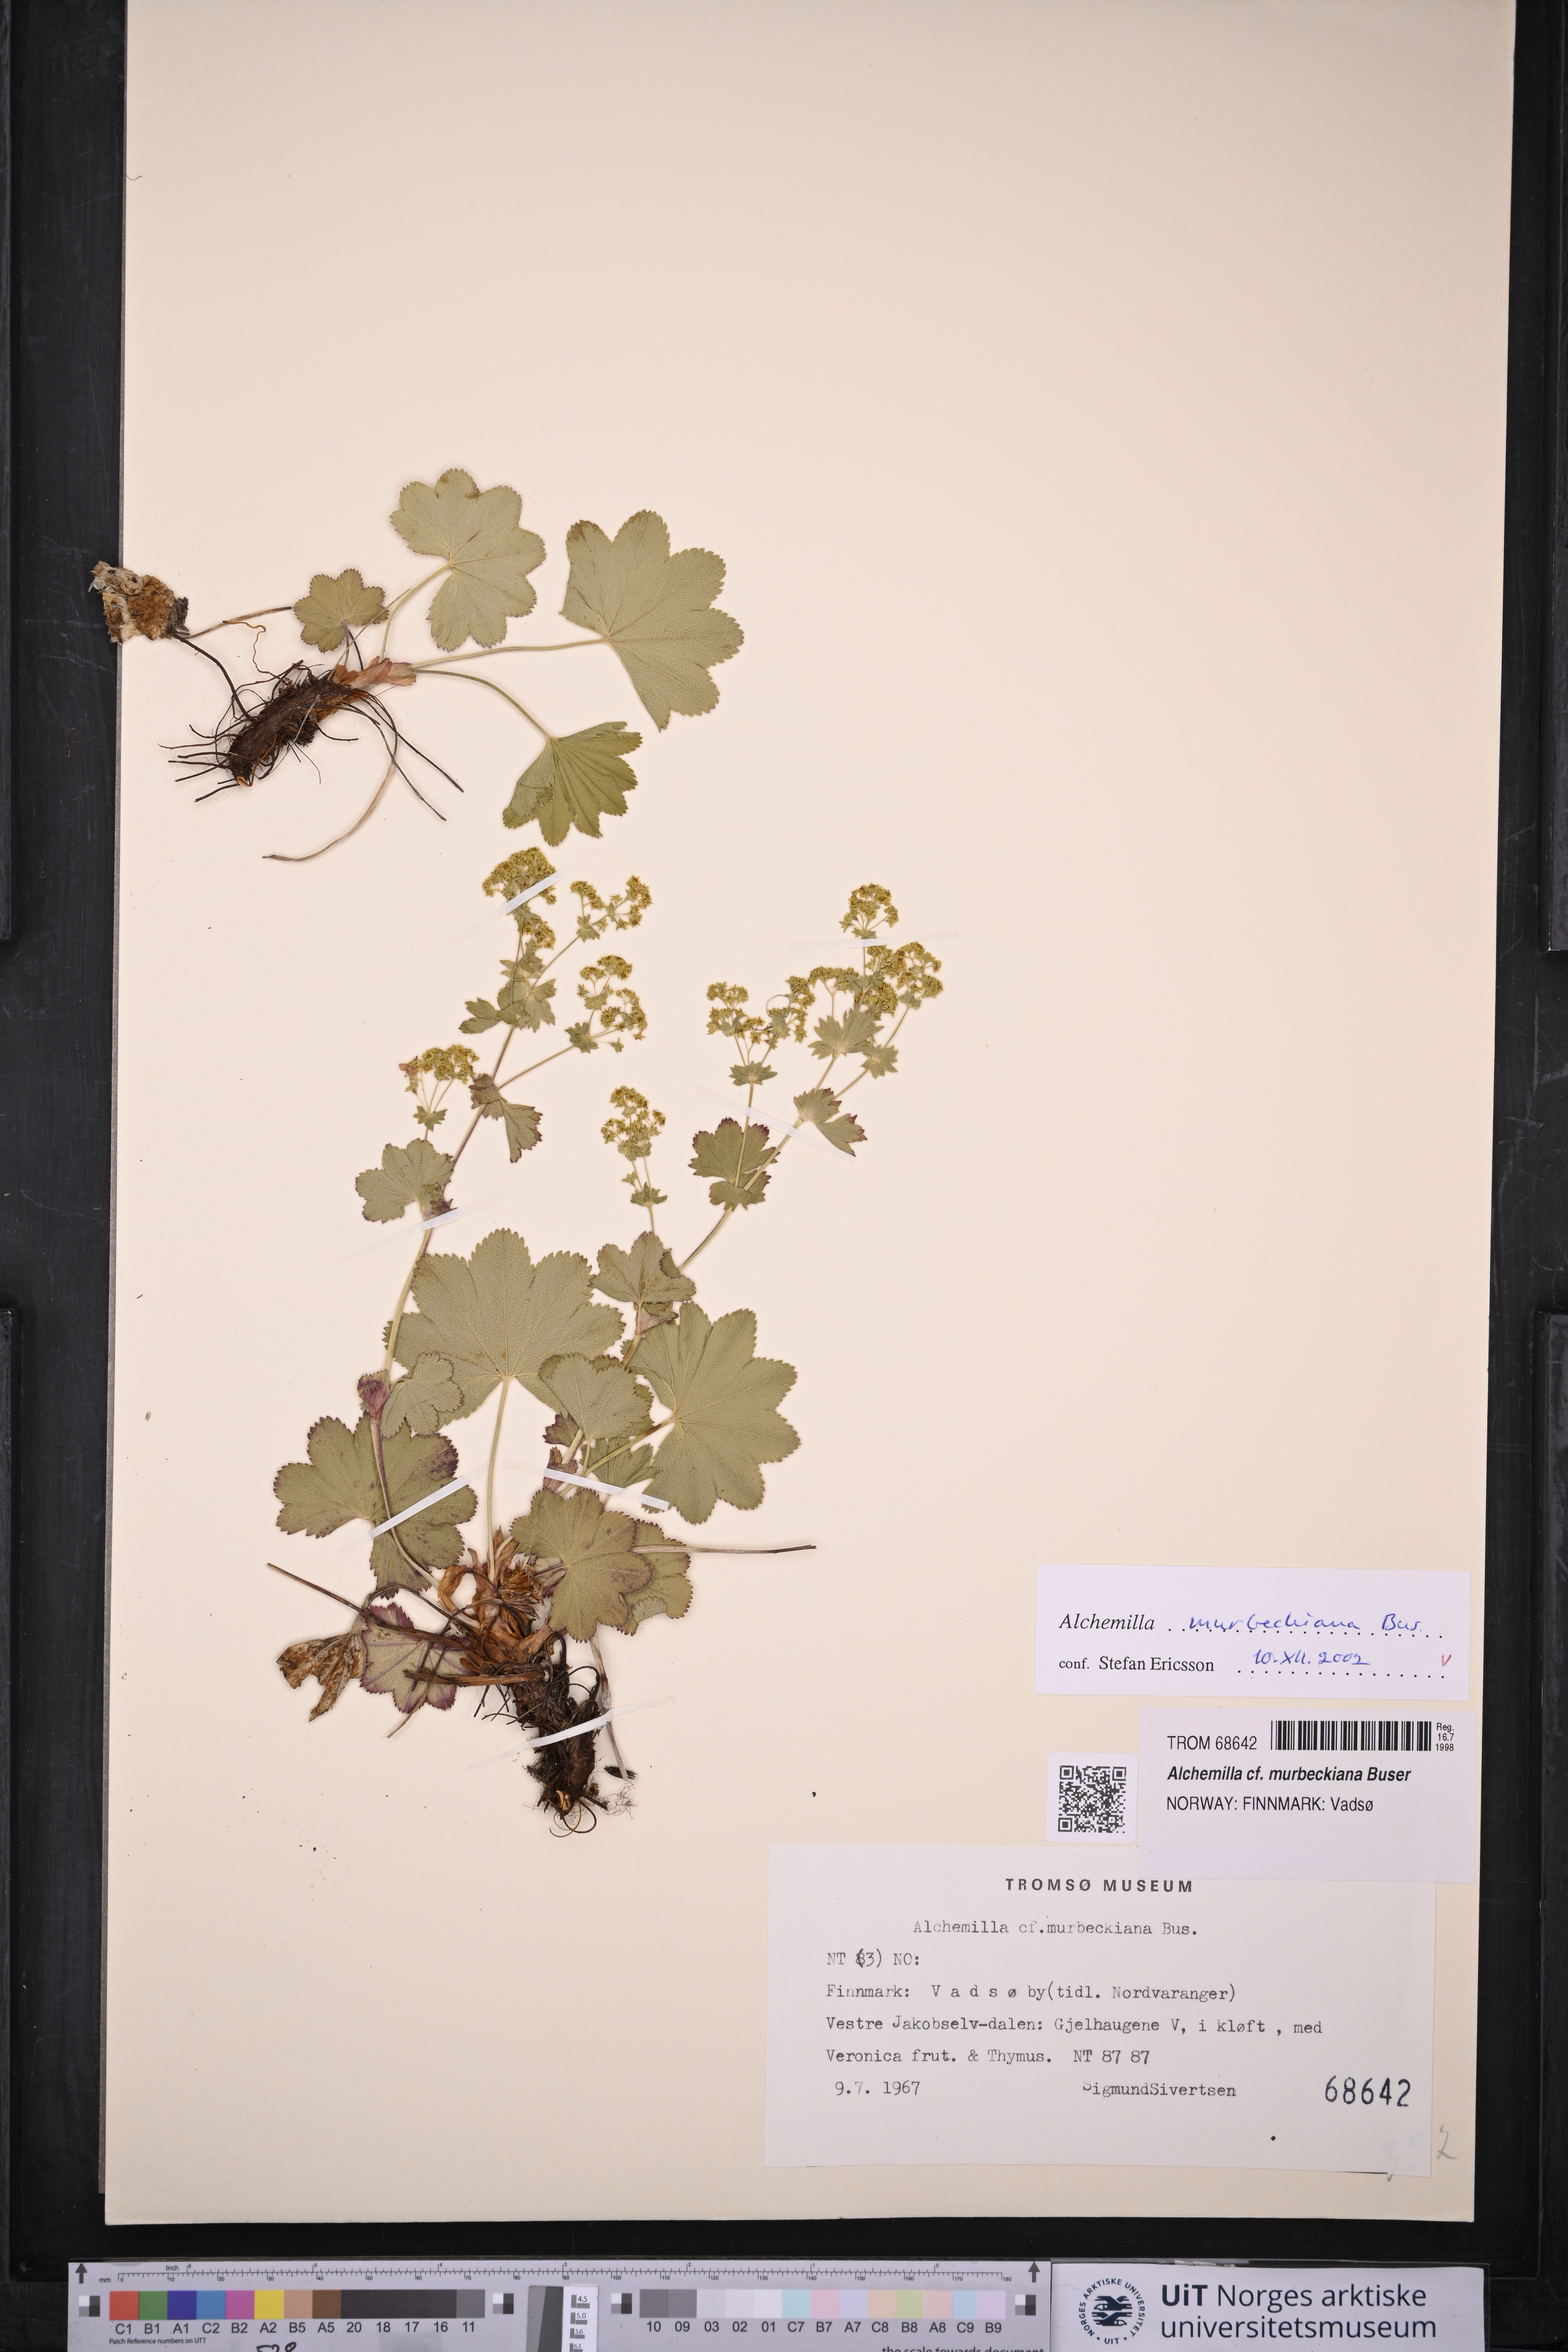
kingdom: Plantae
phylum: Tracheophyta
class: Magnoliopsida
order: Rosales
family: Rosaceae
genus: Alchemilla
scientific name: Alchemilla murbeckiana
